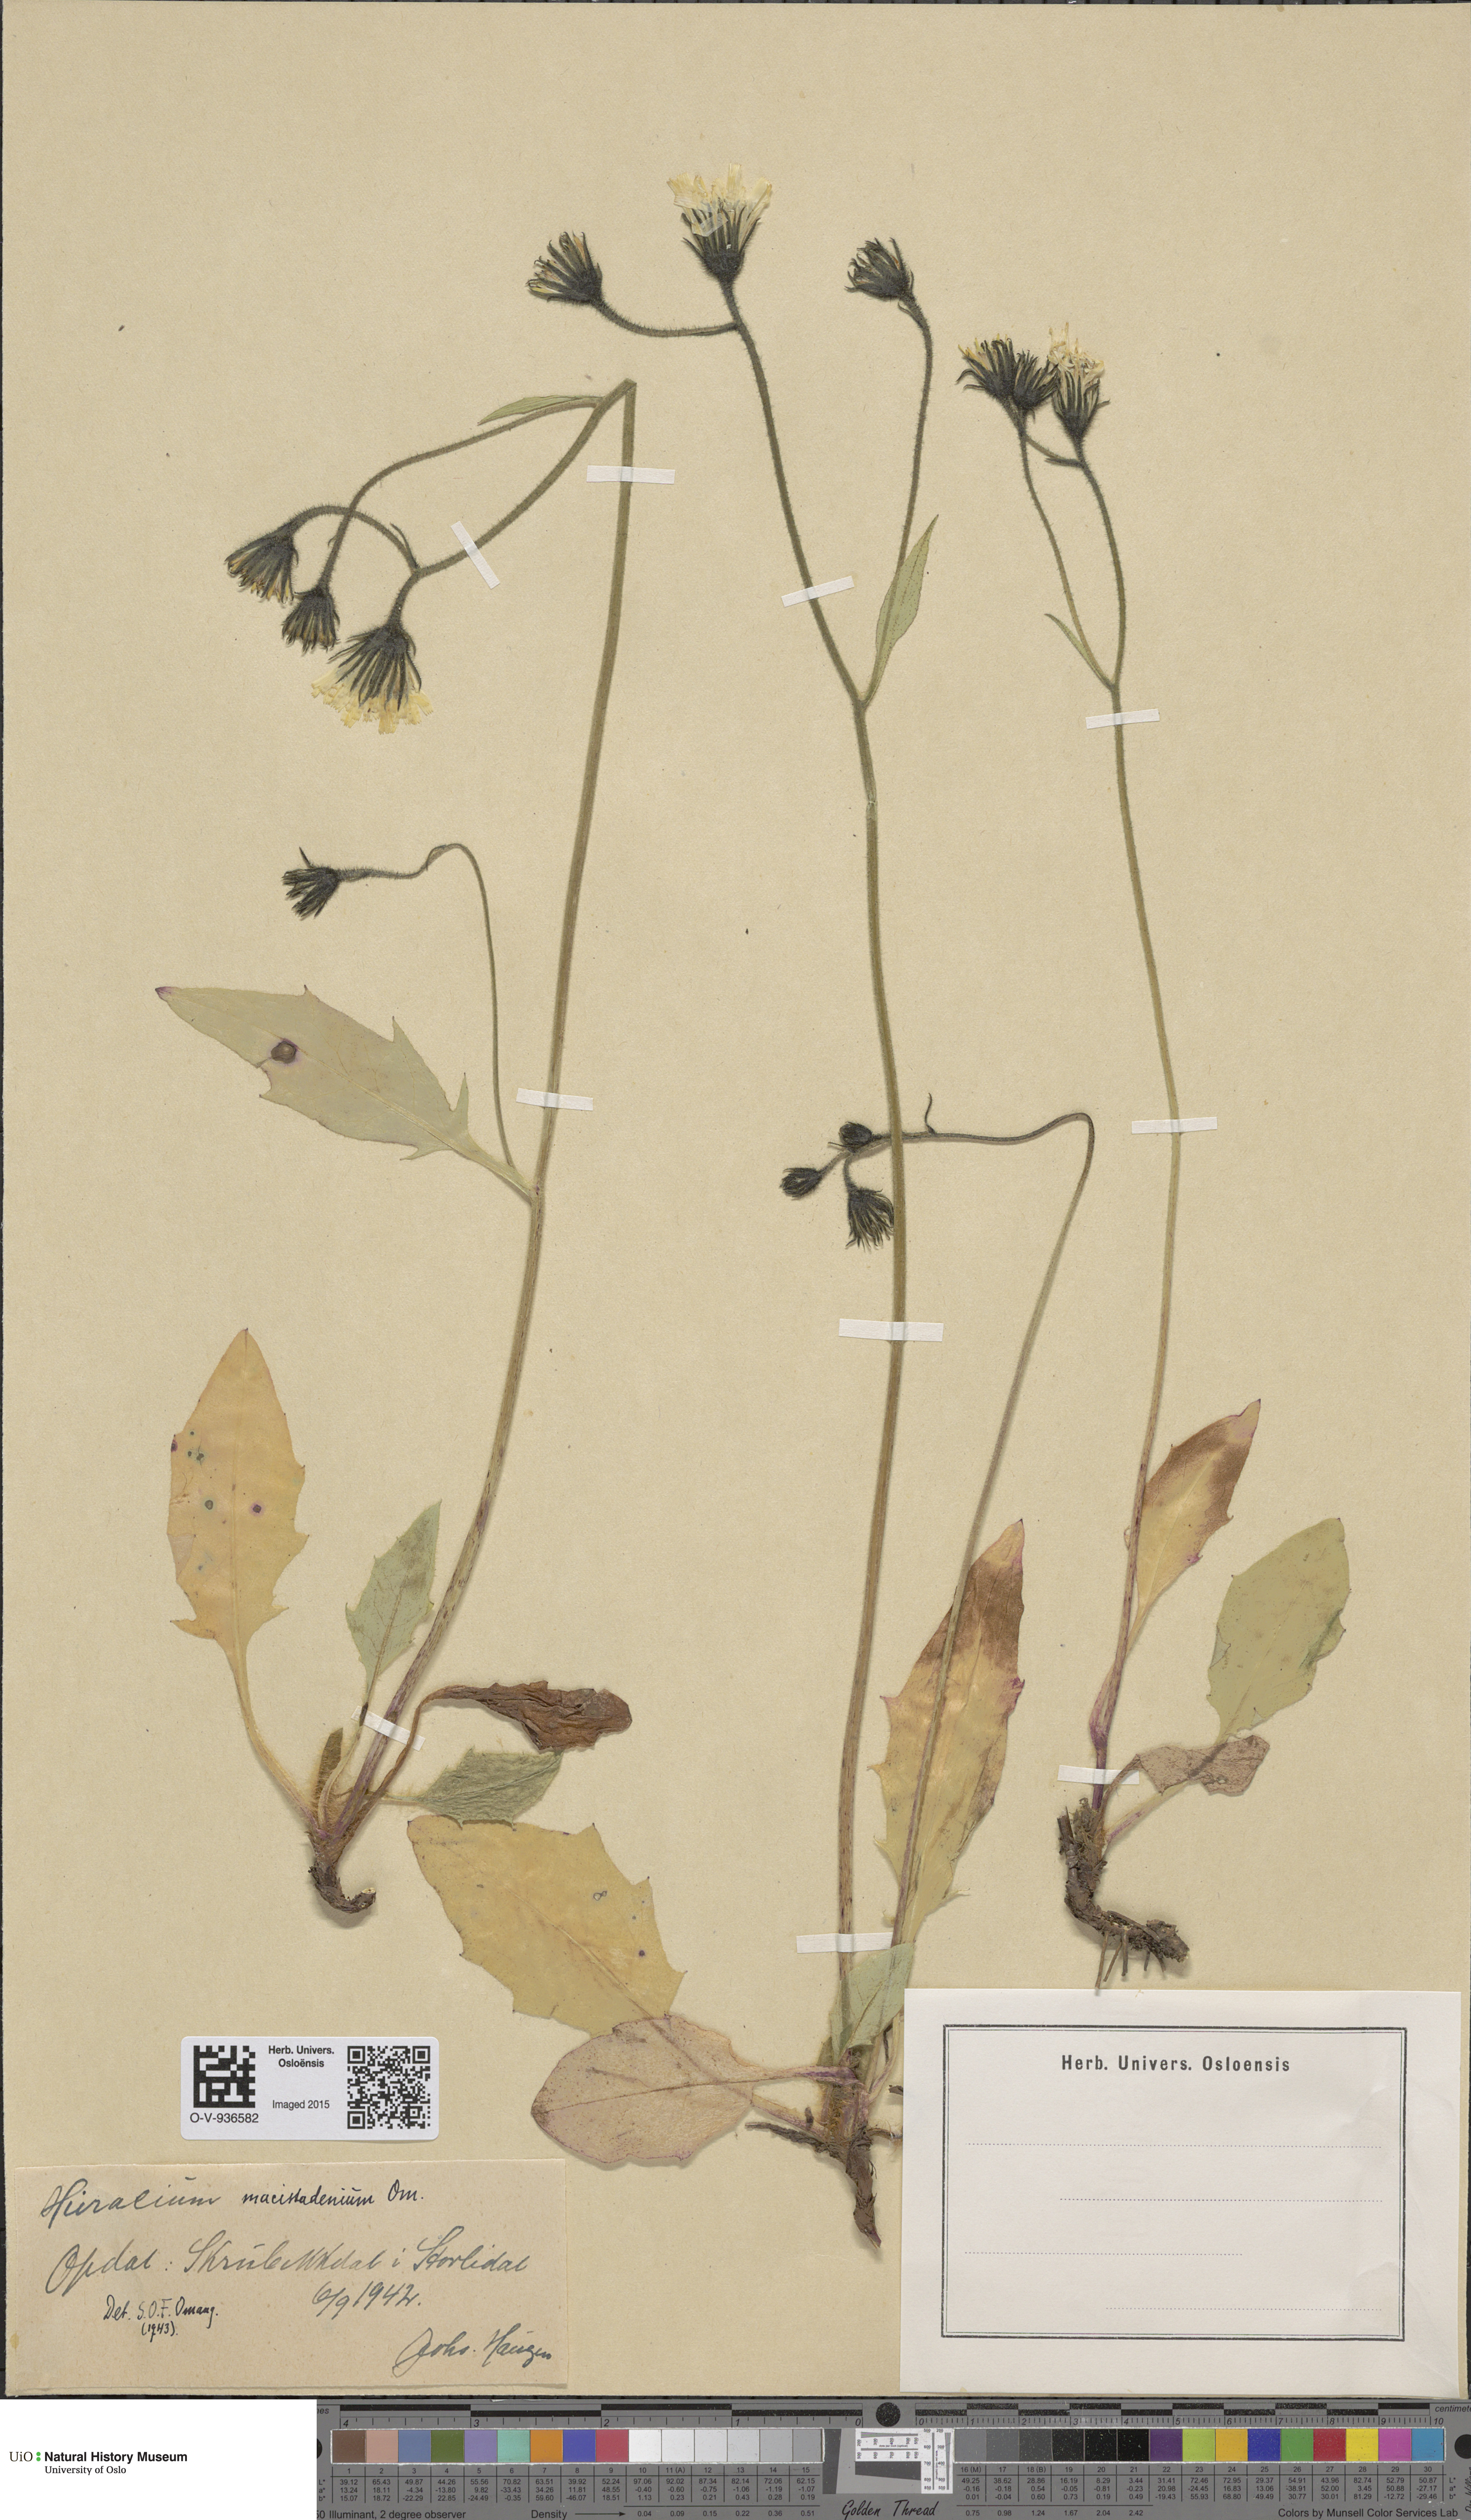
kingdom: Plantae
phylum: Tracheophyta
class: Magnoliopsida
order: Asterales
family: Asteraceae
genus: Hieracium
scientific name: Hieracium
